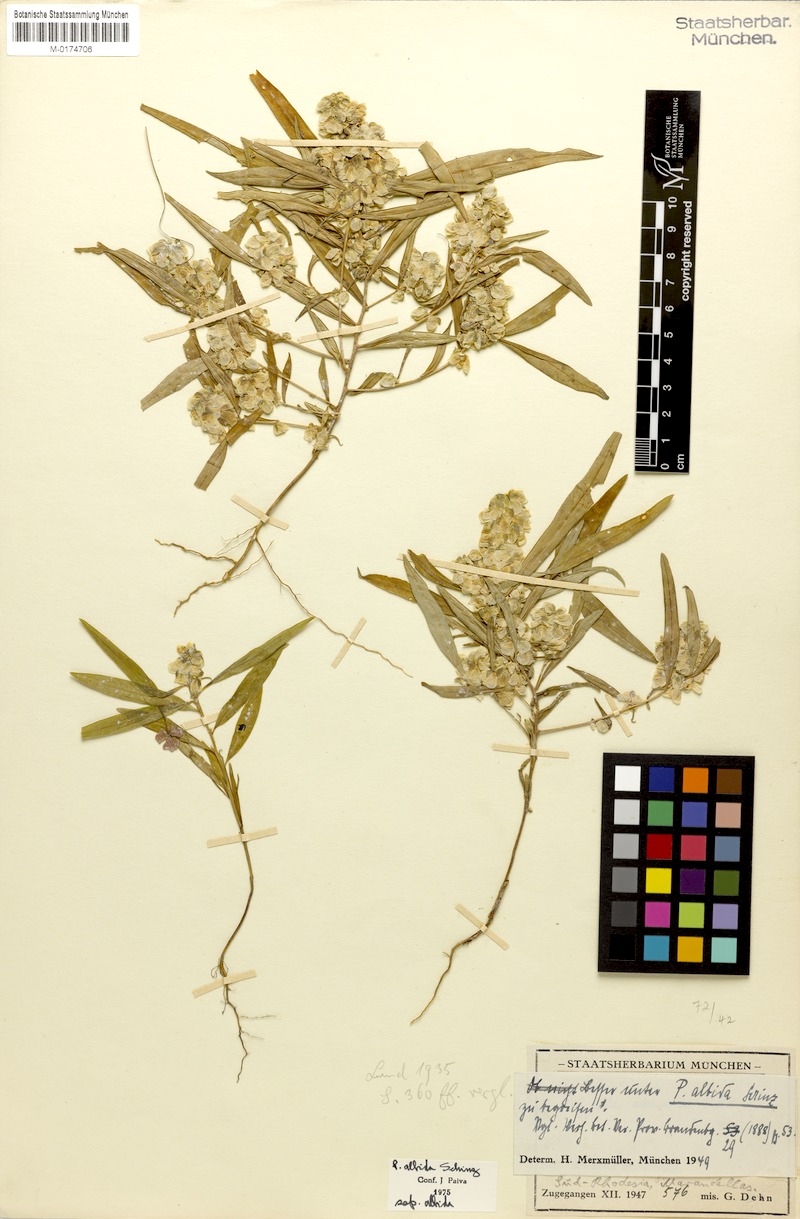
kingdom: Plantae
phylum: Tracheophyta
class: Magnoliopsida
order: Fabales
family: Polygalaceae
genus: Polygala
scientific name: Polygala albida
